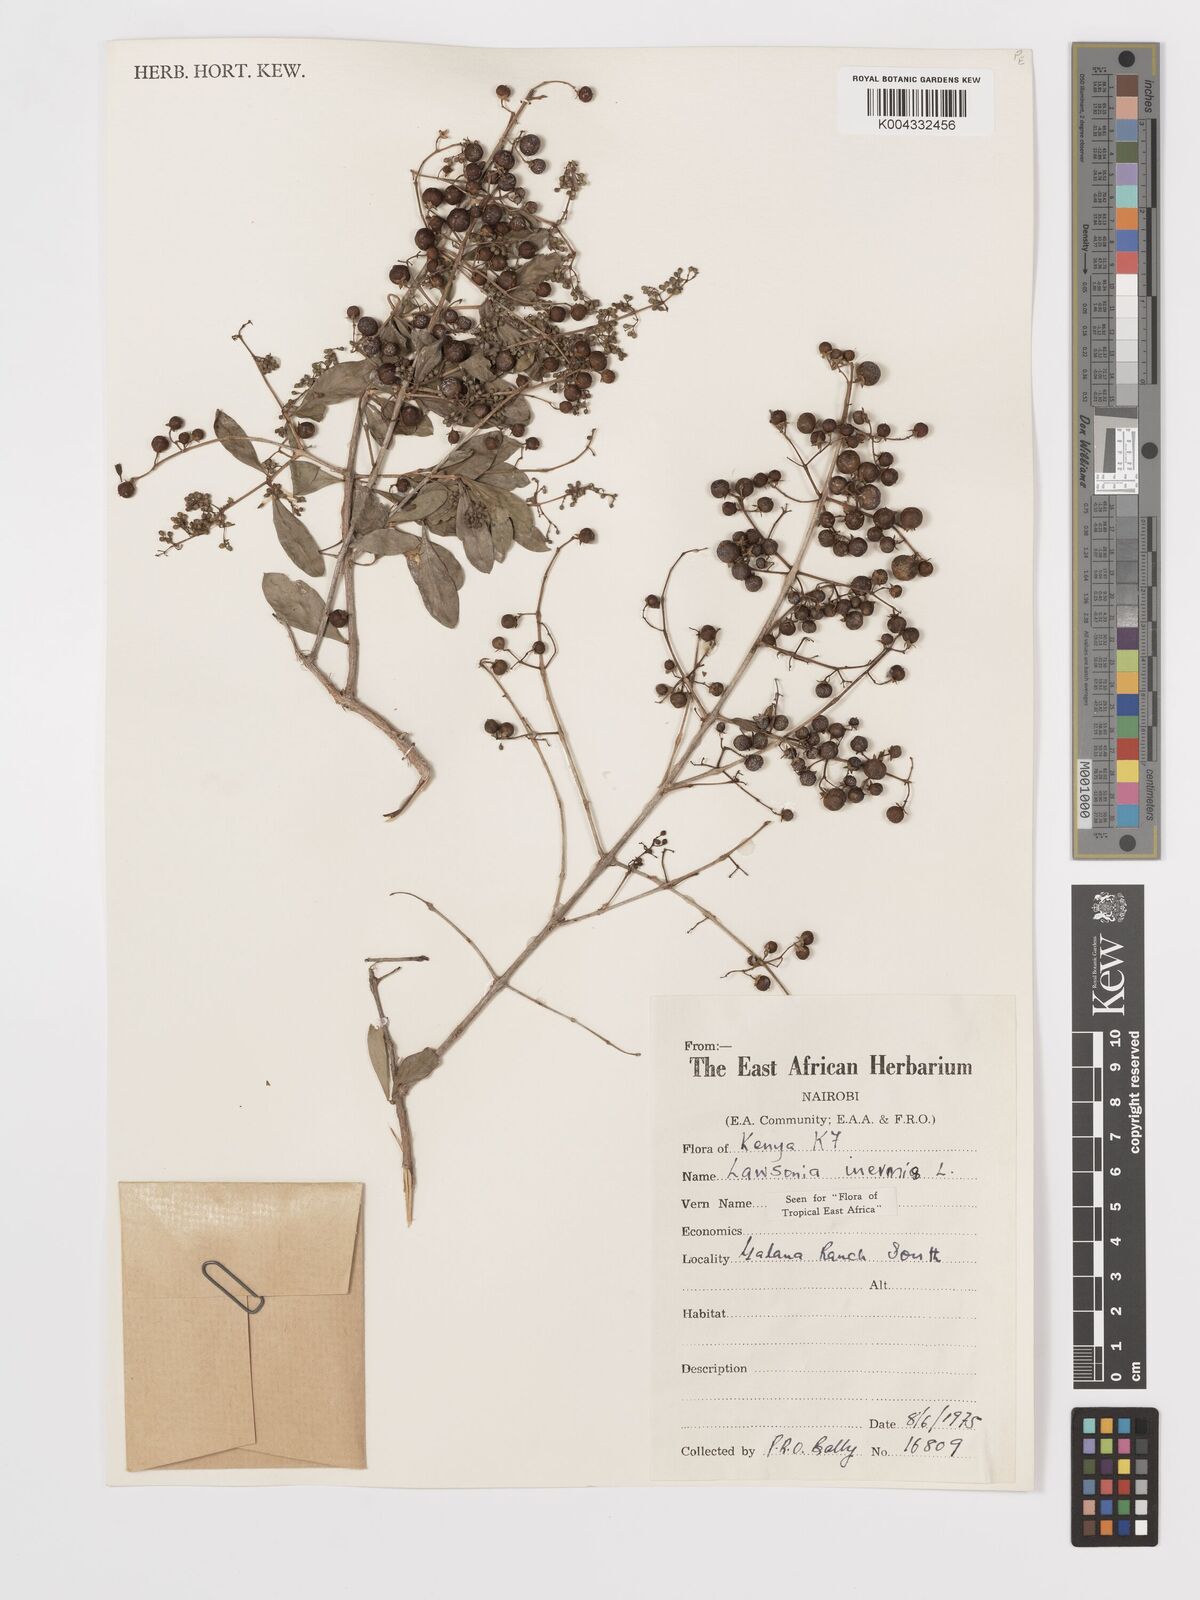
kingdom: Plantae
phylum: Tracheophyta
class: Magnoliopsida
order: Myrtales
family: Lythraceae
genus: Lawsonia
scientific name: Lawsonia inermis
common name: Henna
